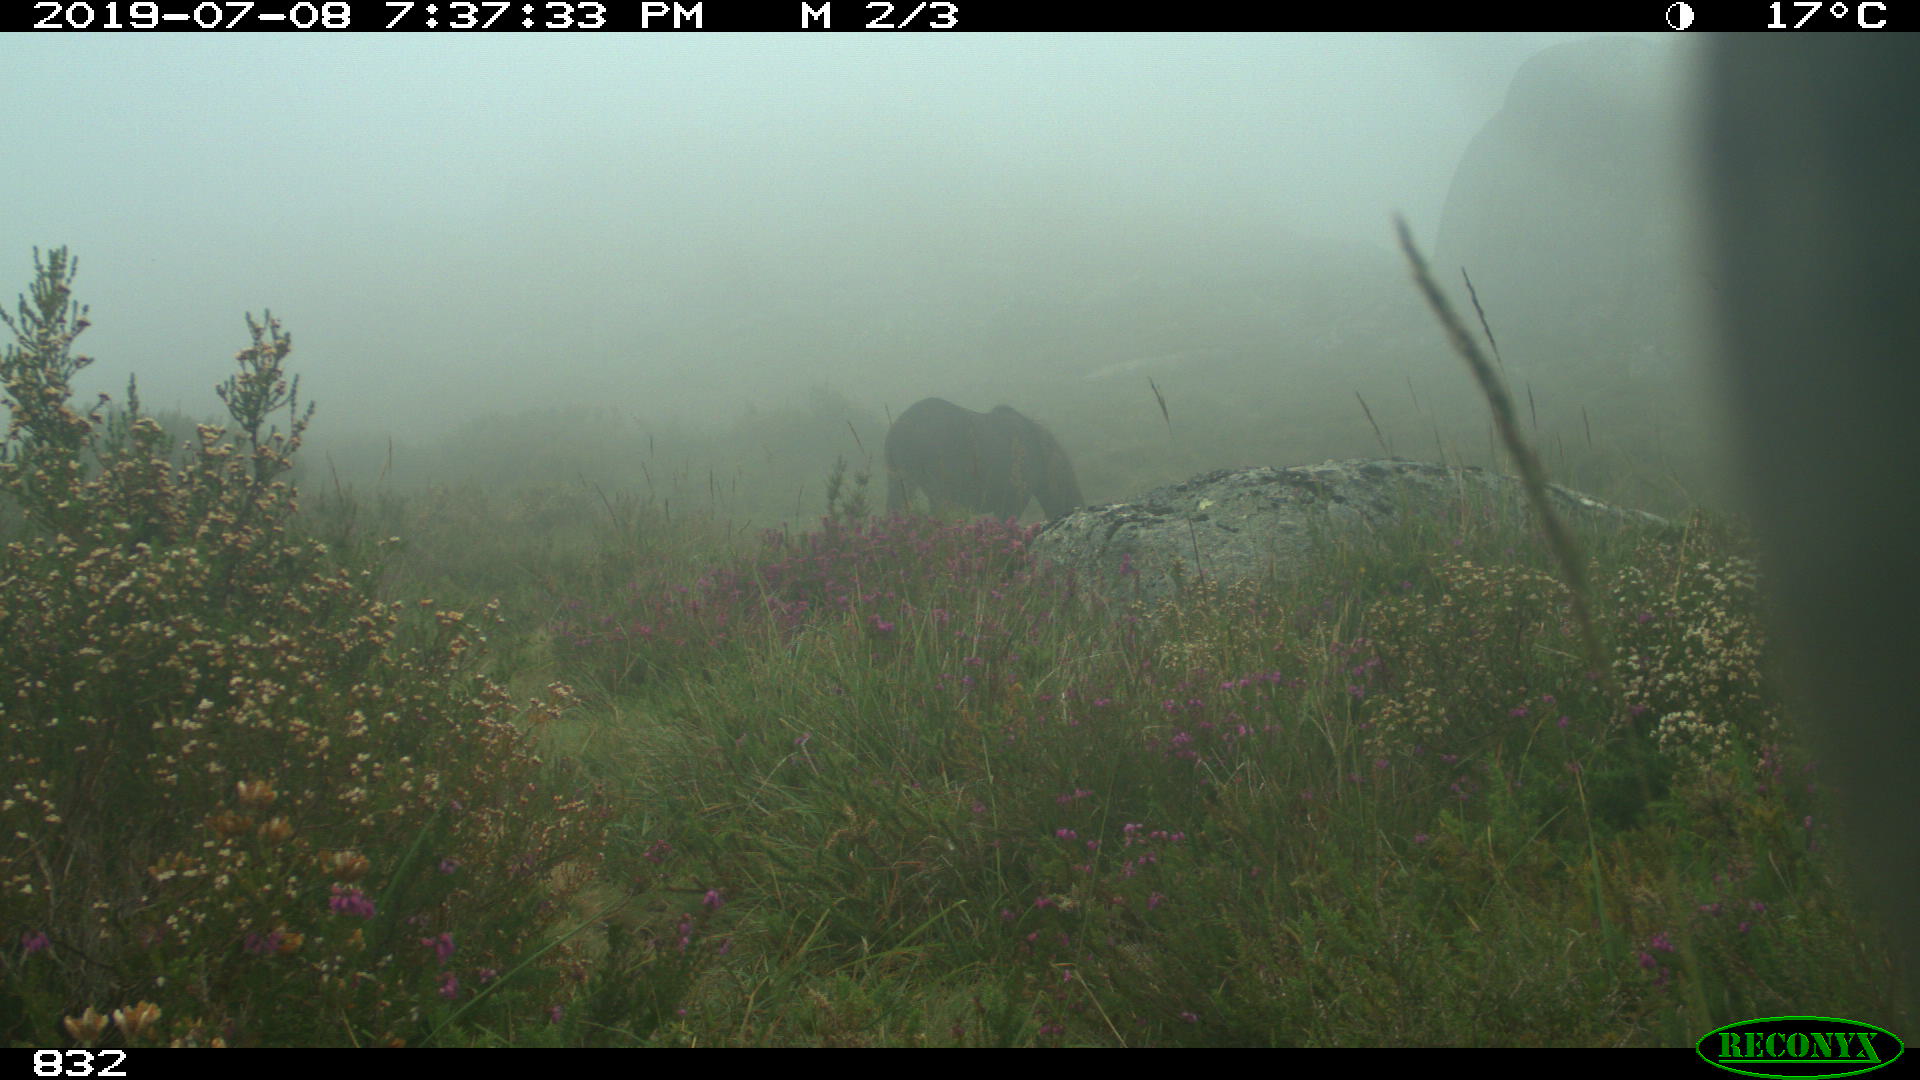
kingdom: Animalia
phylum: Chordata
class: Mammalia
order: Perissodactyla
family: Equidae
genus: Equus
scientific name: Equus caballus
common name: Horse
